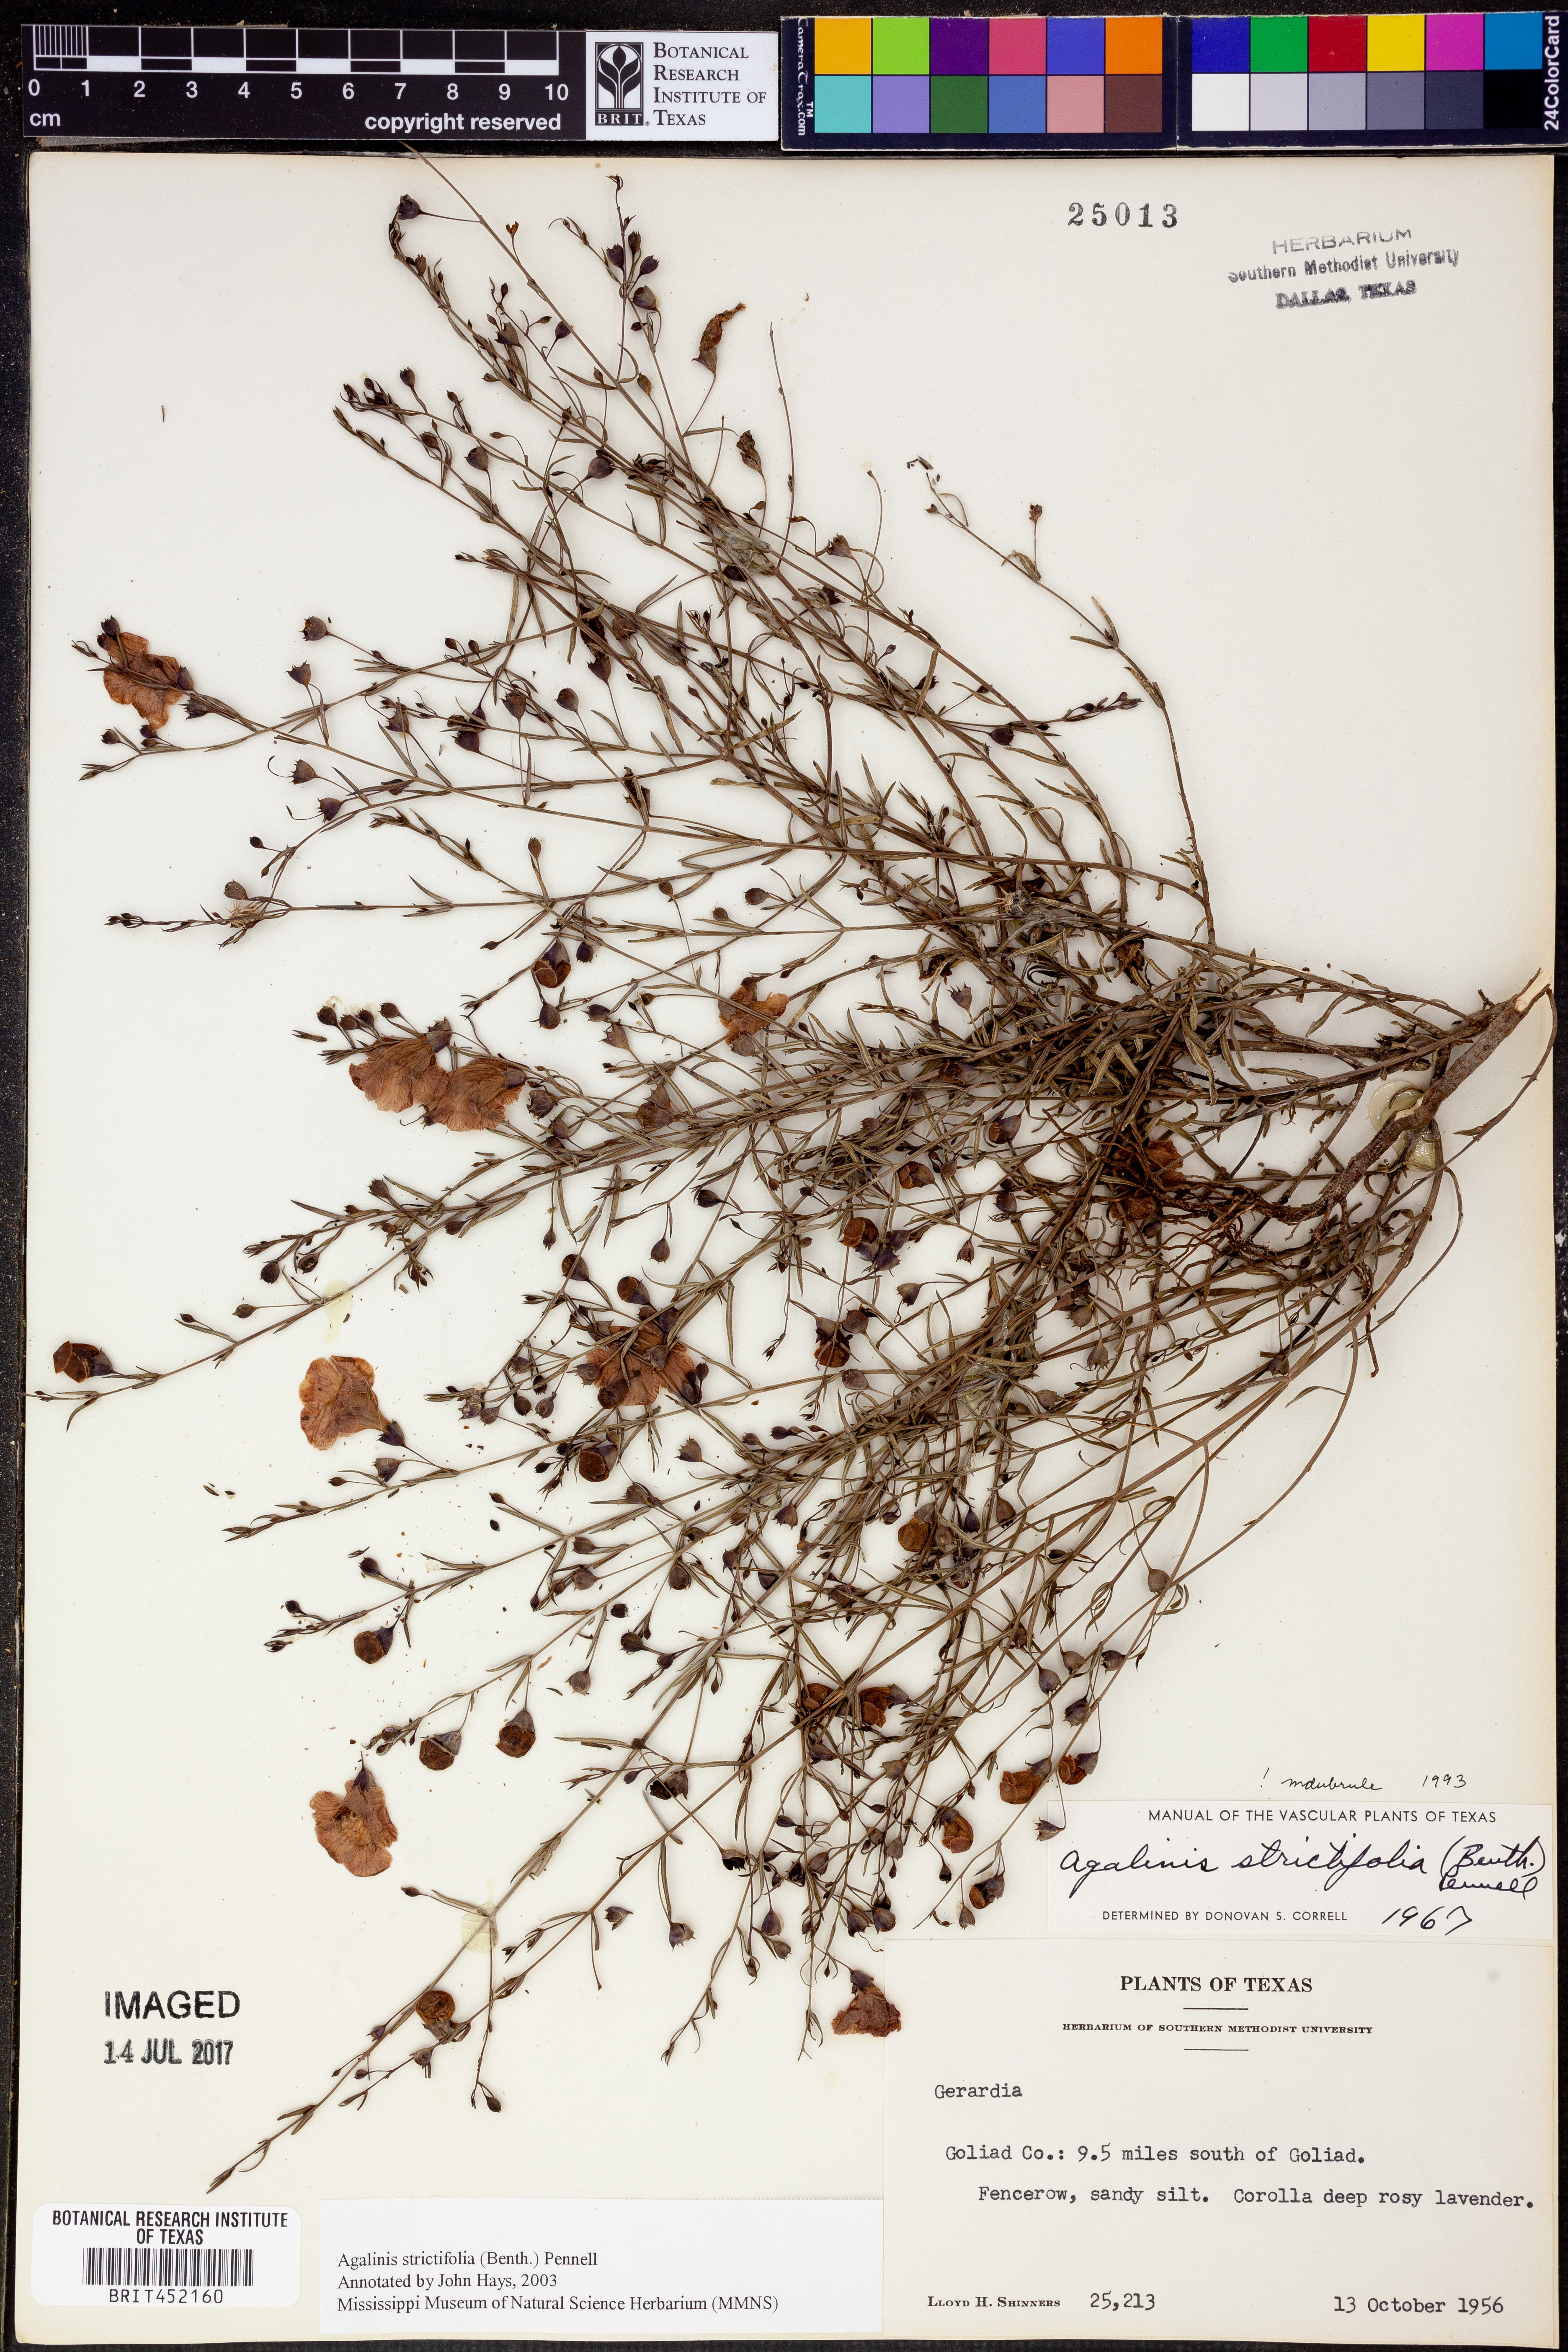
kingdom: Plantae
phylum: Tracheophyta
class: Magnoliopsida
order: Lamiales
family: Orobanchaceae
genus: Agalinis
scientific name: Agalinis strictifolia
